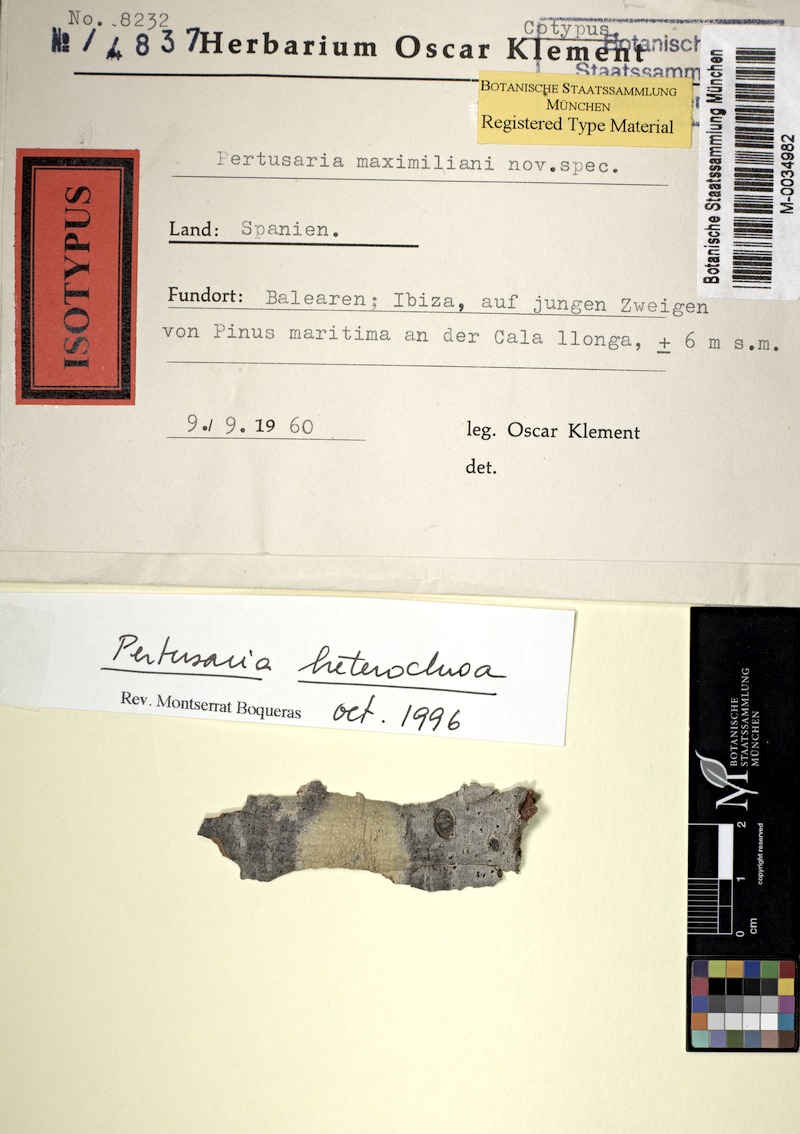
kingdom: Fungi
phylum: Ascomycota
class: Lecanoromycetes
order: Pertusariales
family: Pertusariaceae
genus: Pertusaria
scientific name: Pertusaria heterochroa
